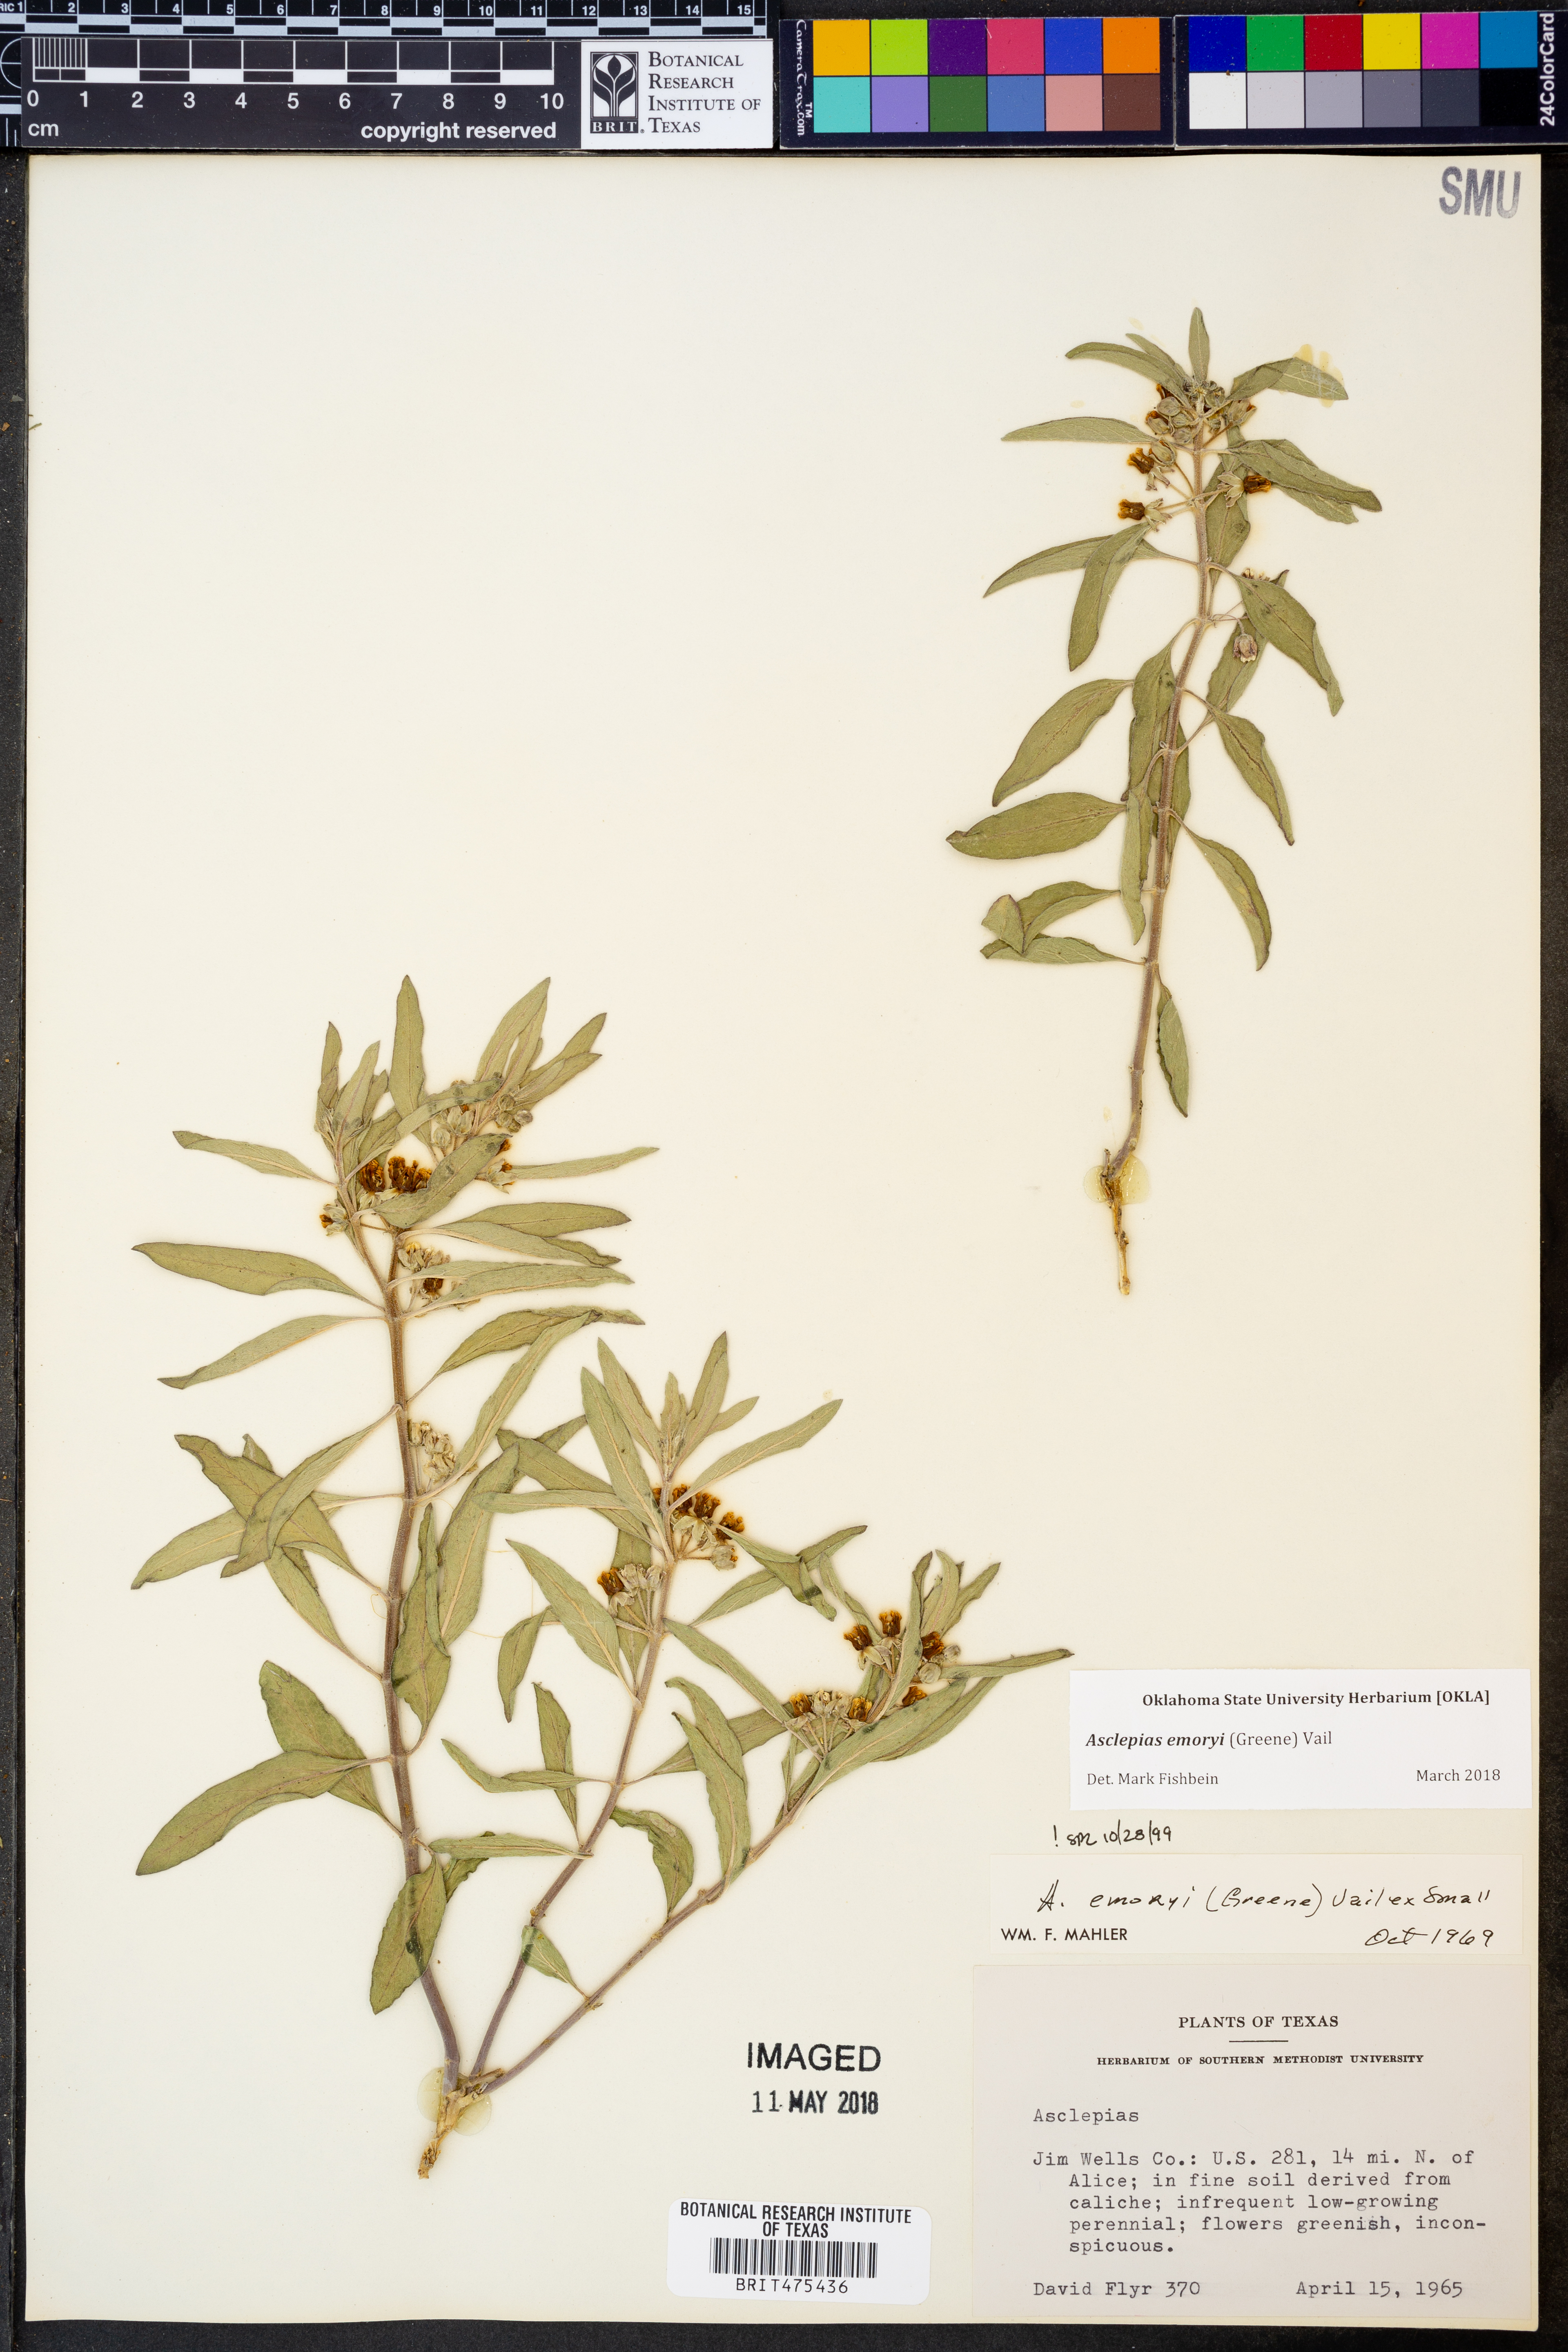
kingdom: Plantae
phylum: Tracheophyta
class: Magnoliopsida
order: Gentianales
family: Apocynaceae
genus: Asclepias
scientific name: Asclepias emoryi
